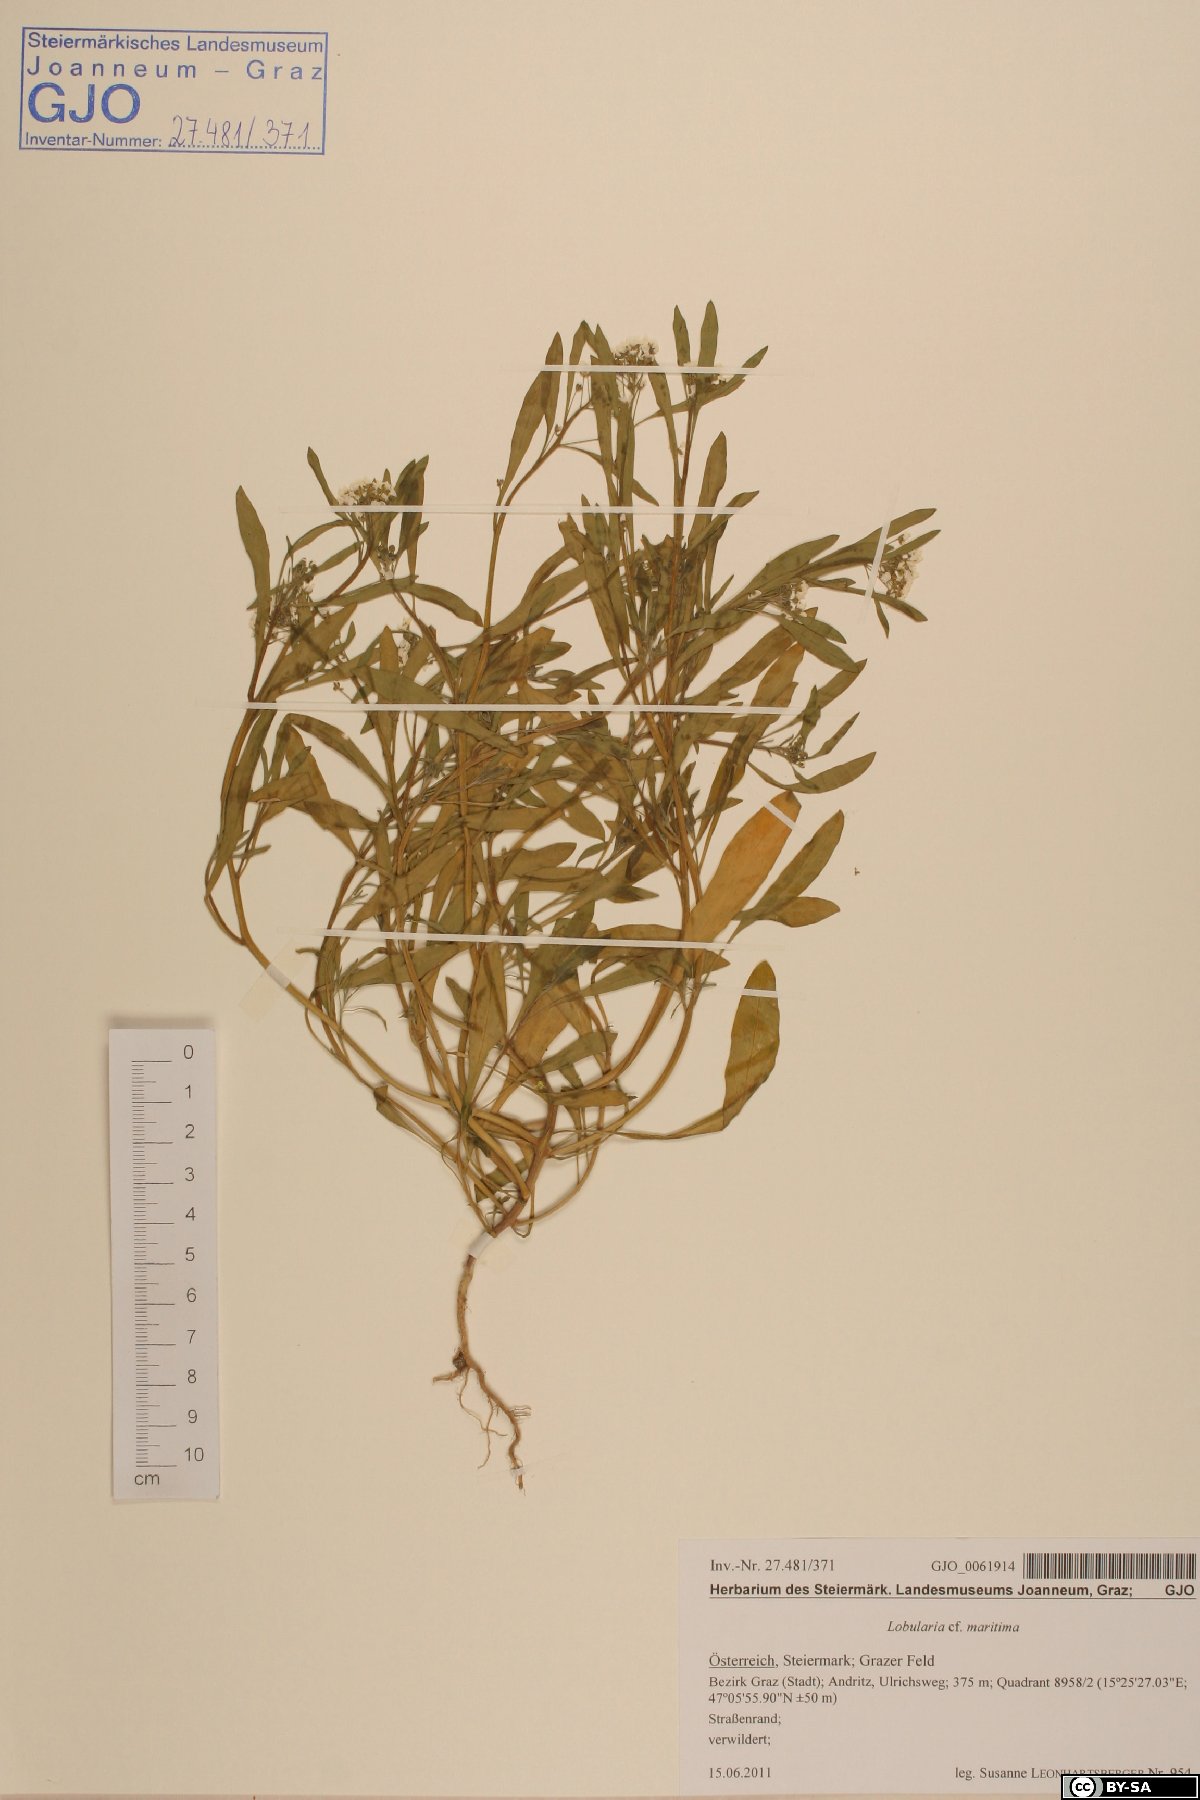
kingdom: Plantae
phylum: Tracheophyta
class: Magnoliopsida
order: Brassicales
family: Brassicaceae
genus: Lobularia
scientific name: Lobularia maritima
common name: Sweet alison
